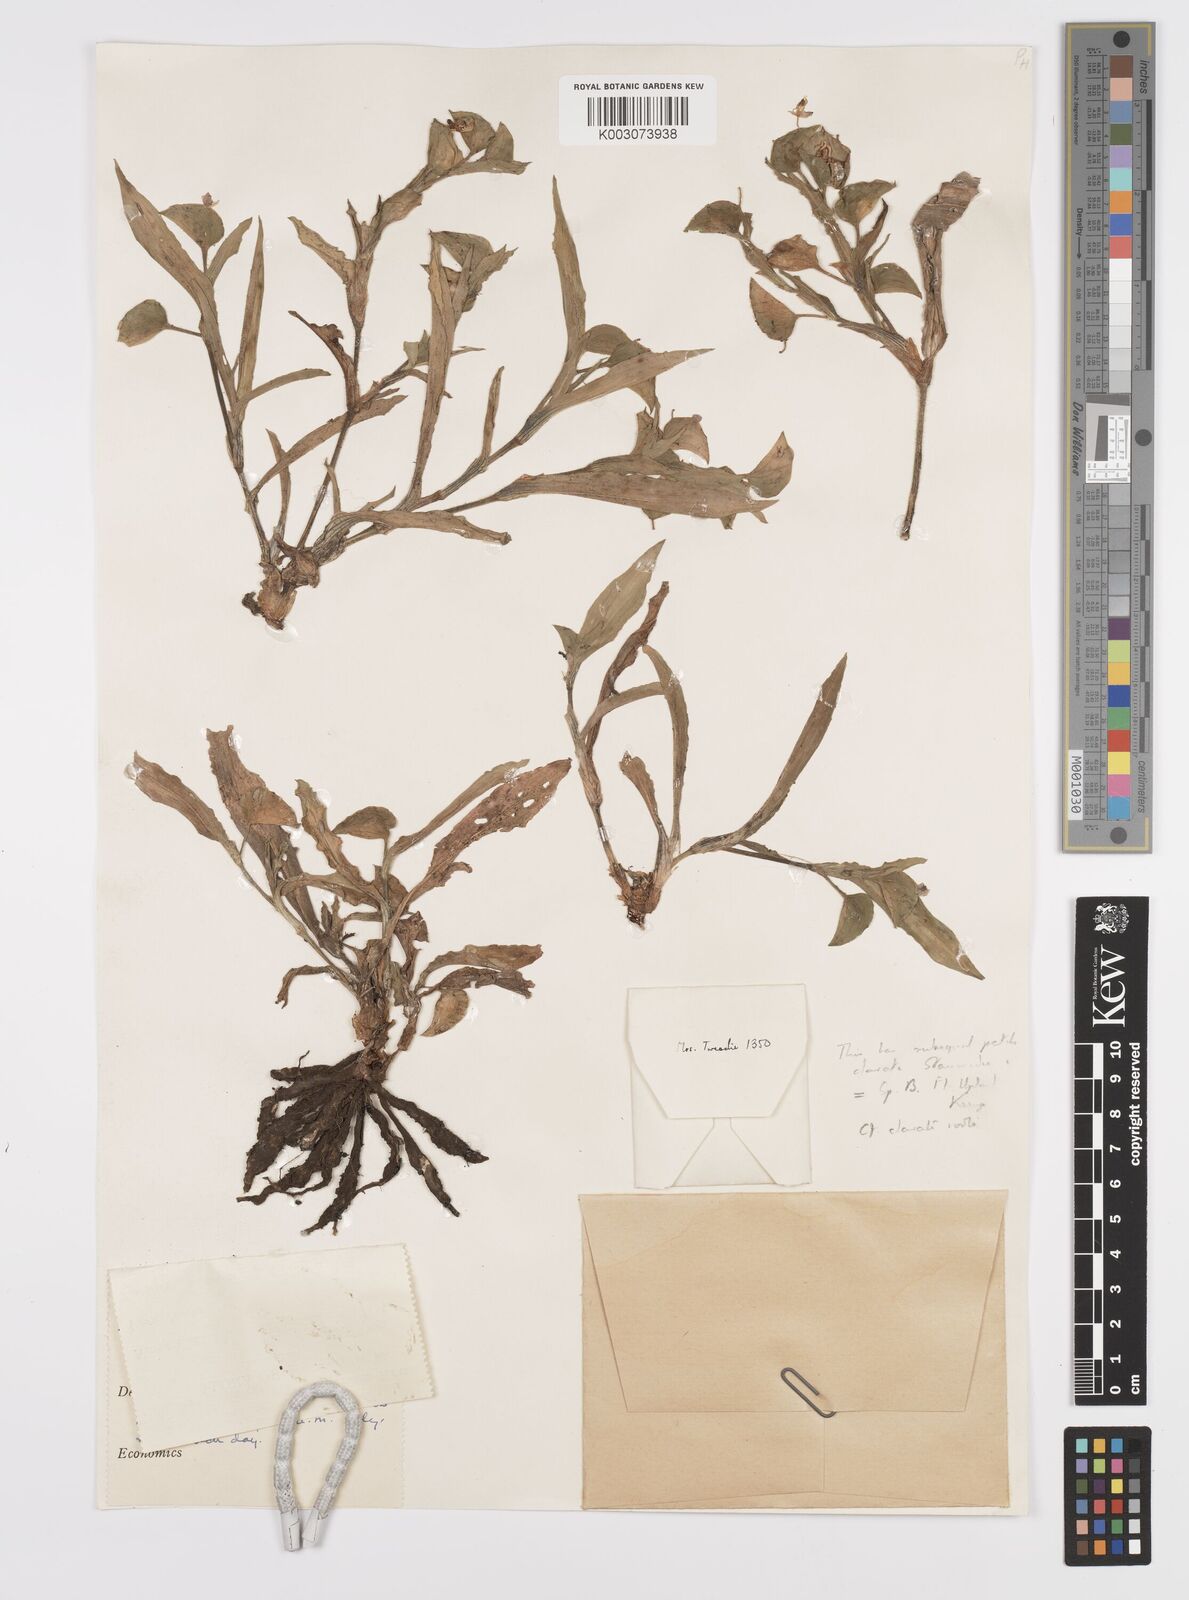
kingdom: Plantae
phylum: Tracheophyta
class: Liliopsida
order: Commelinales
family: Commelinaceae
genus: Commelina
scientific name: Commelina eckloniana
